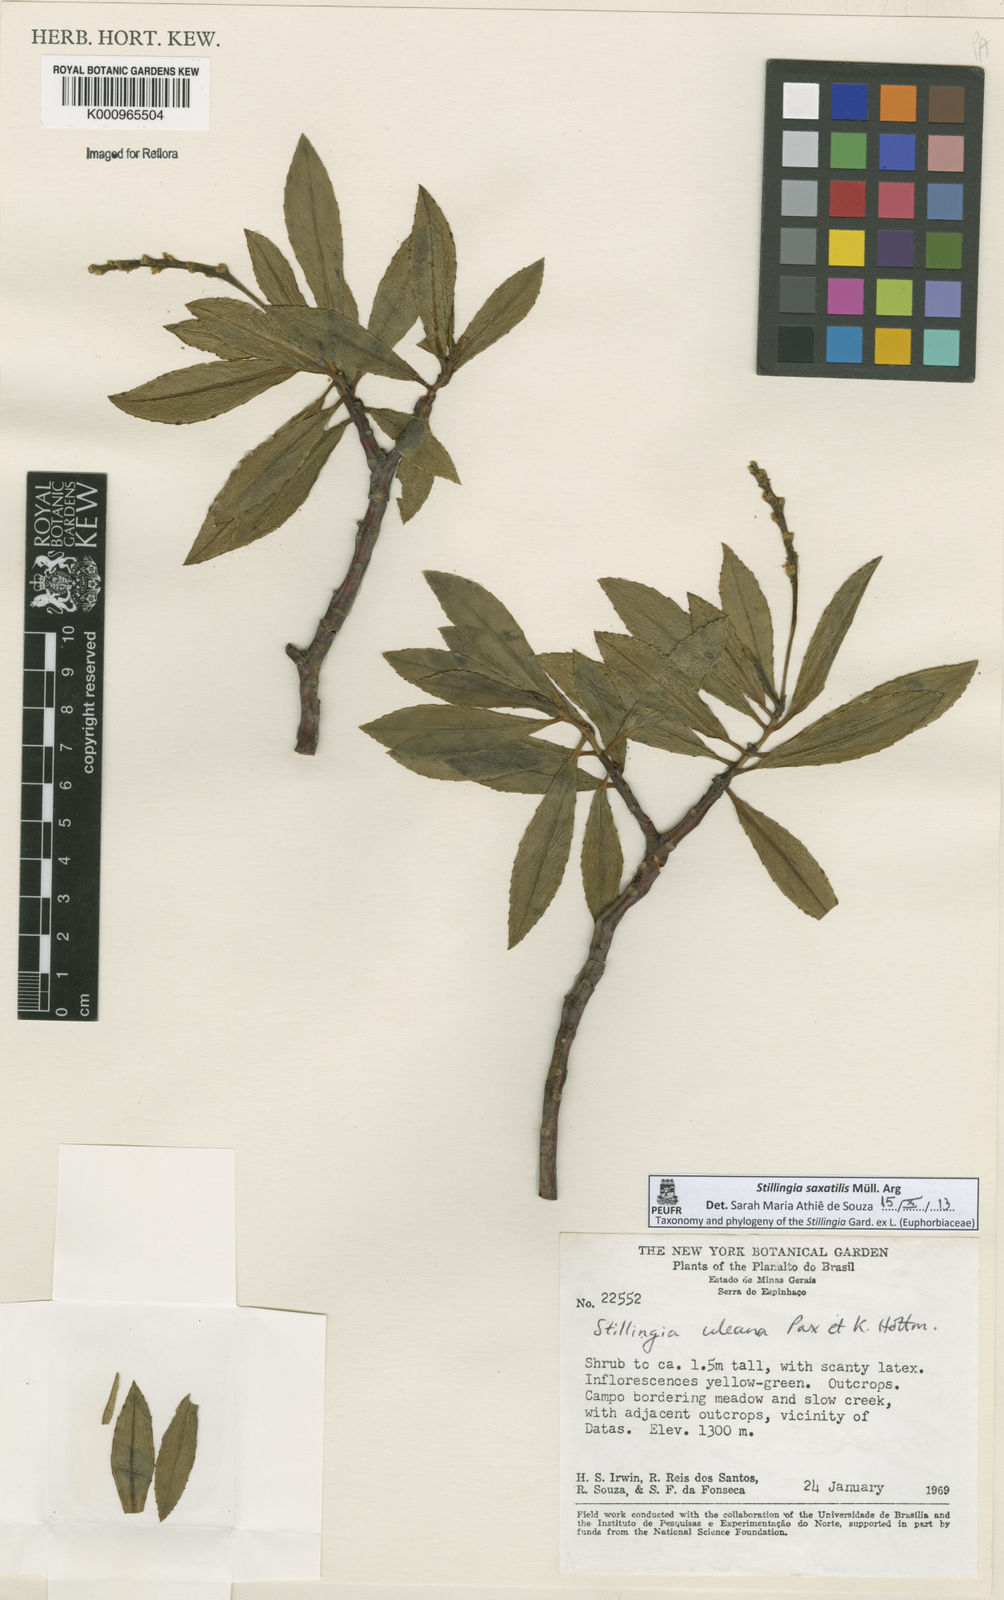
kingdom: Plantae
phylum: Tracheophyta
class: Magnoliopsida
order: Malpighiales
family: Euphorbiaceae
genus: Stillingia
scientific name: Stillingia
